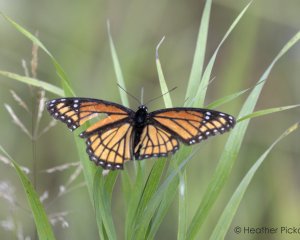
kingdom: Animalia
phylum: Arthropoda
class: Insecta
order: Lepidoptera
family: Nymphalidae
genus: Limenitis
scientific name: Limenitis archippus
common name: Viceroy
